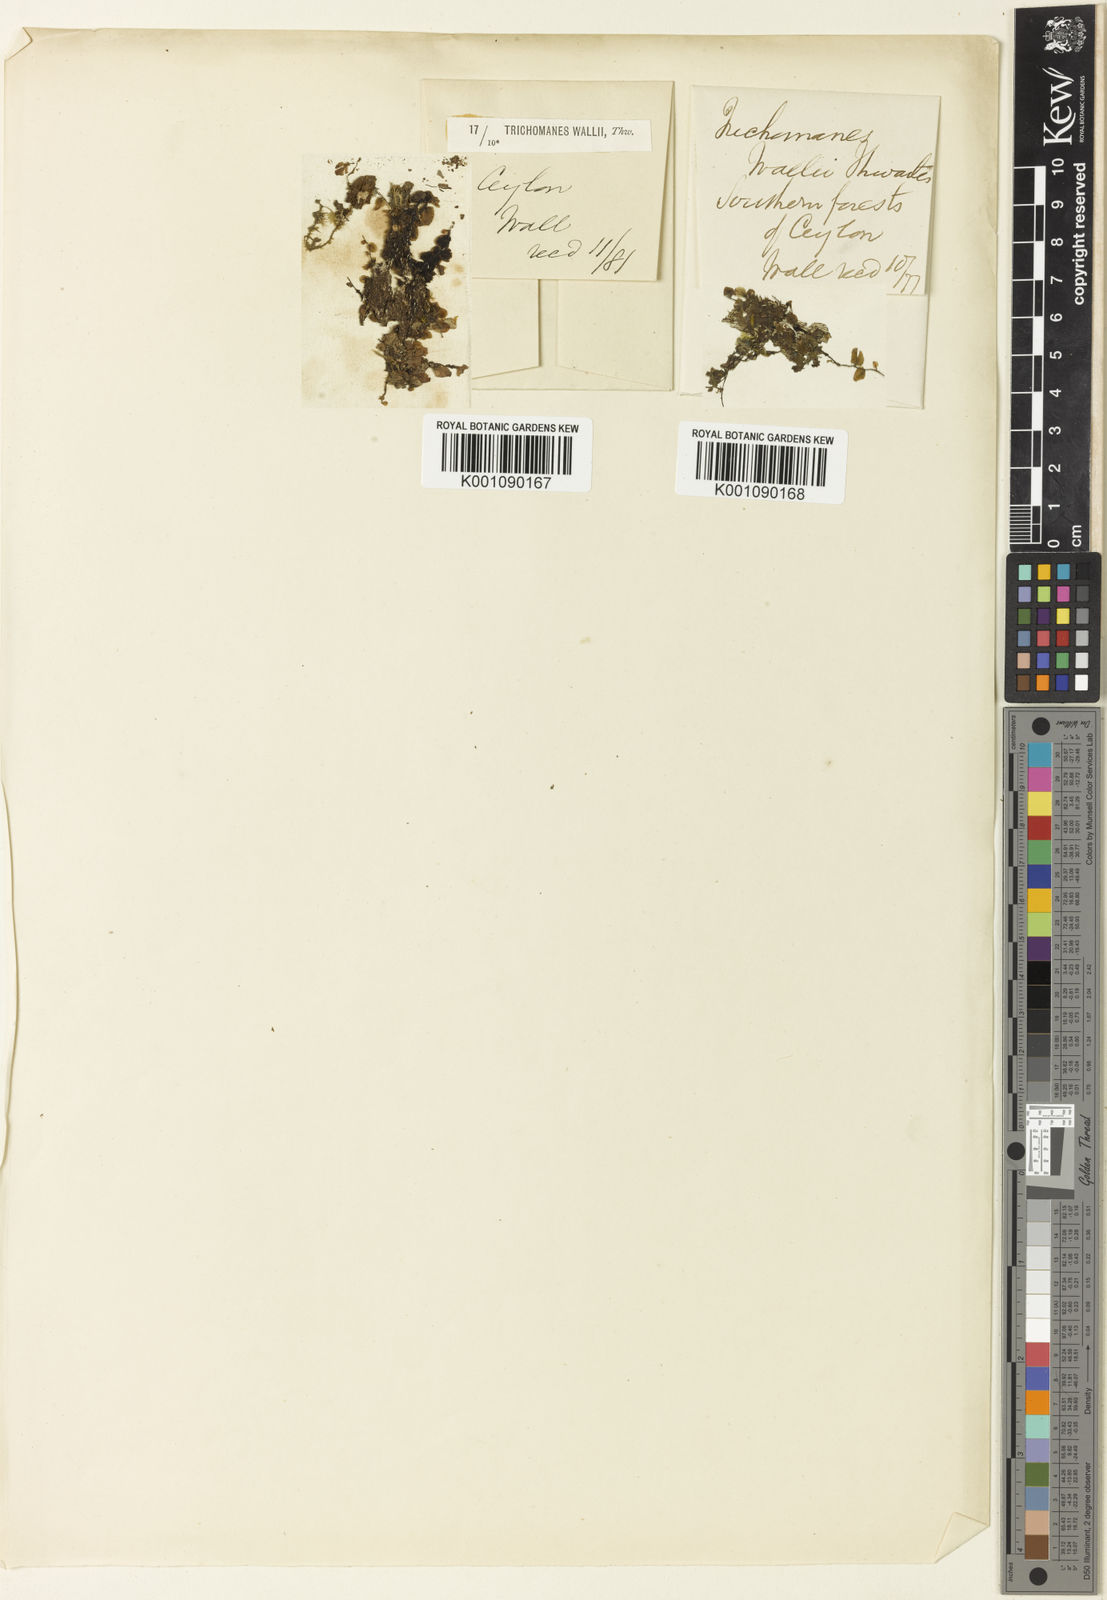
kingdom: Plantae
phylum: Tracheophyta
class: Polypodiopsida
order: Hymenophyllales
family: Hymenophyllaceae
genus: Didymoglossum
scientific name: Didymoglossum wallii
